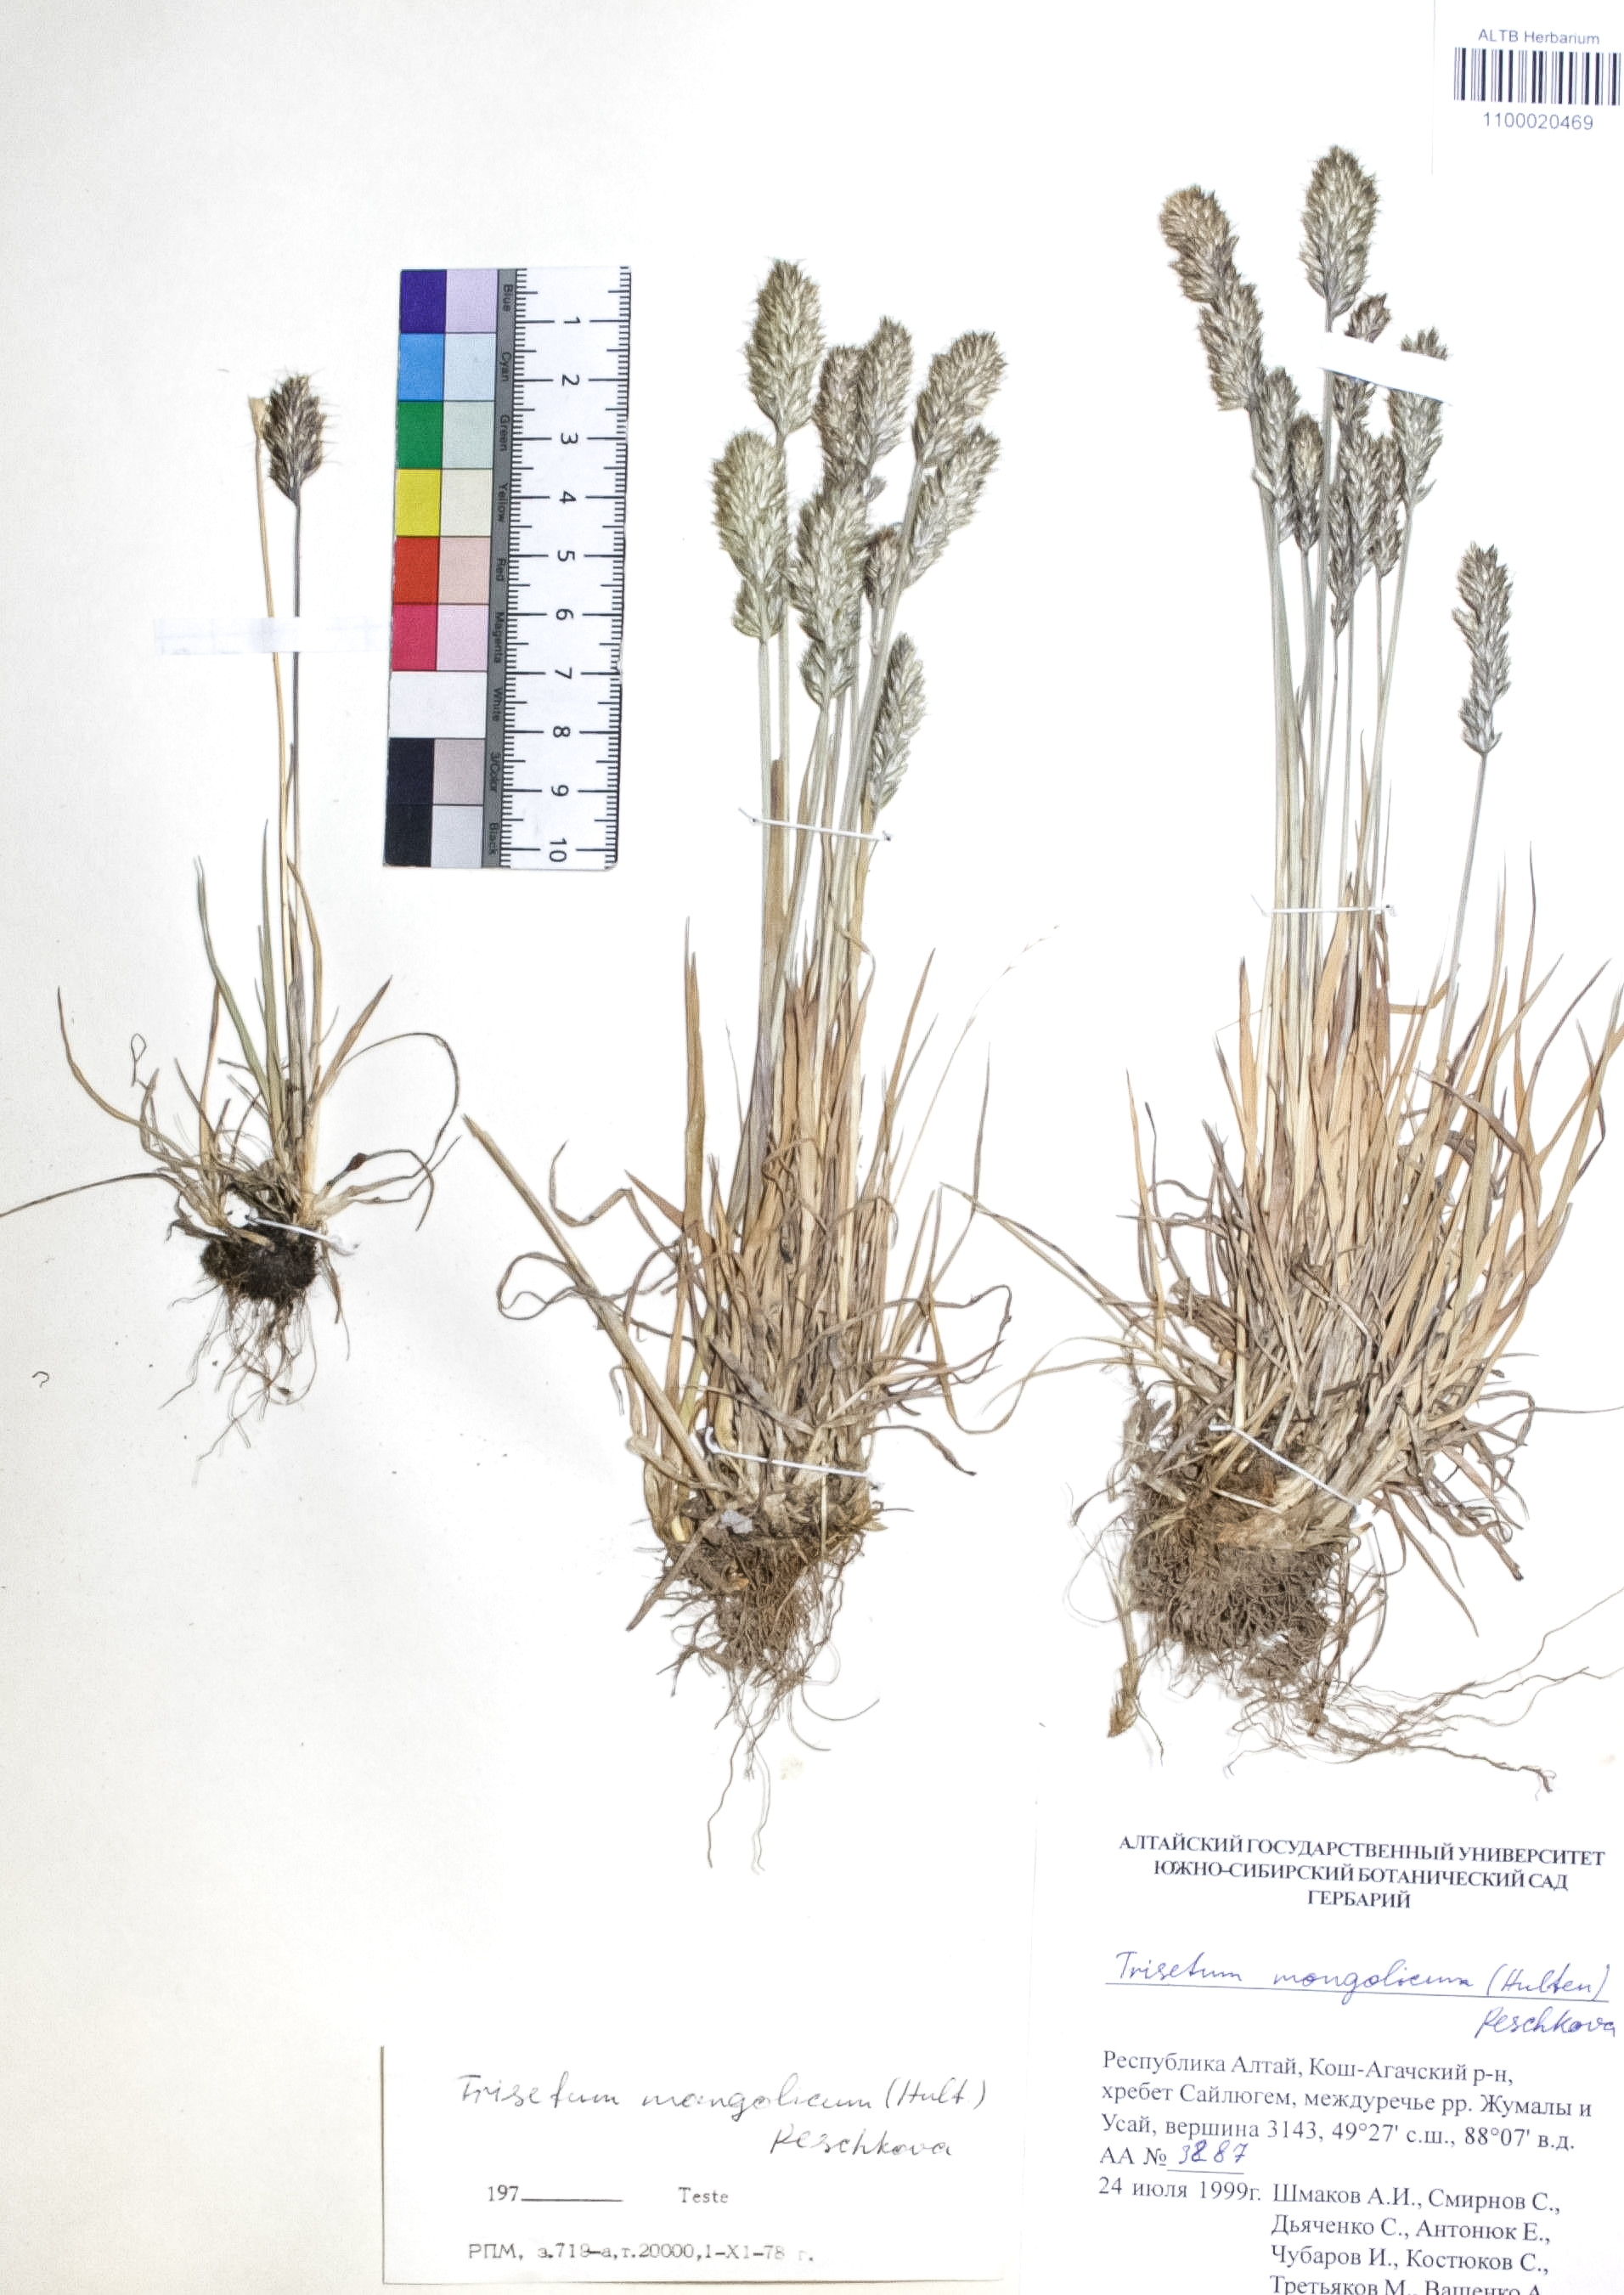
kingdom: Plantae
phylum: Tracheophyta
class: Liliopsida
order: Poales
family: Poaceae
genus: Koeleria
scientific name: Koeleria spicata
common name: Mountain trisetum
